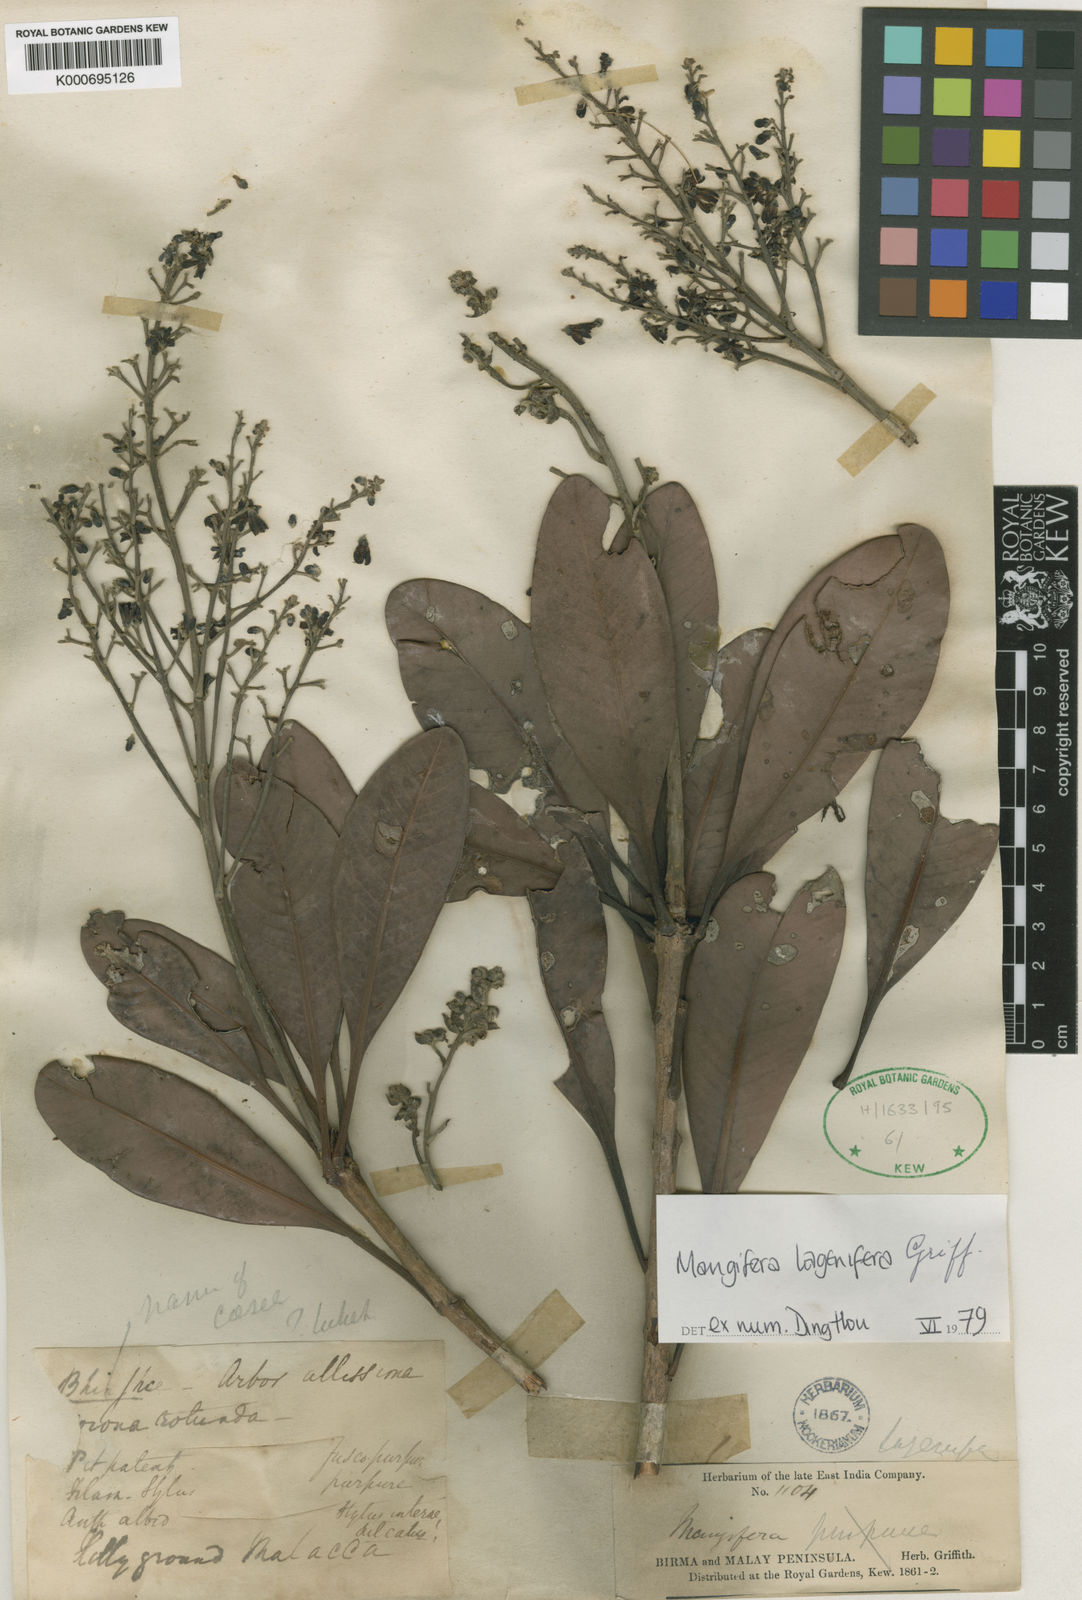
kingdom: Plantae
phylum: Tracheophyta
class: Magnoliopsida
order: Sapindales
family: Anacardiaceae
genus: Mangifera
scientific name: Mangifera lagenifera
